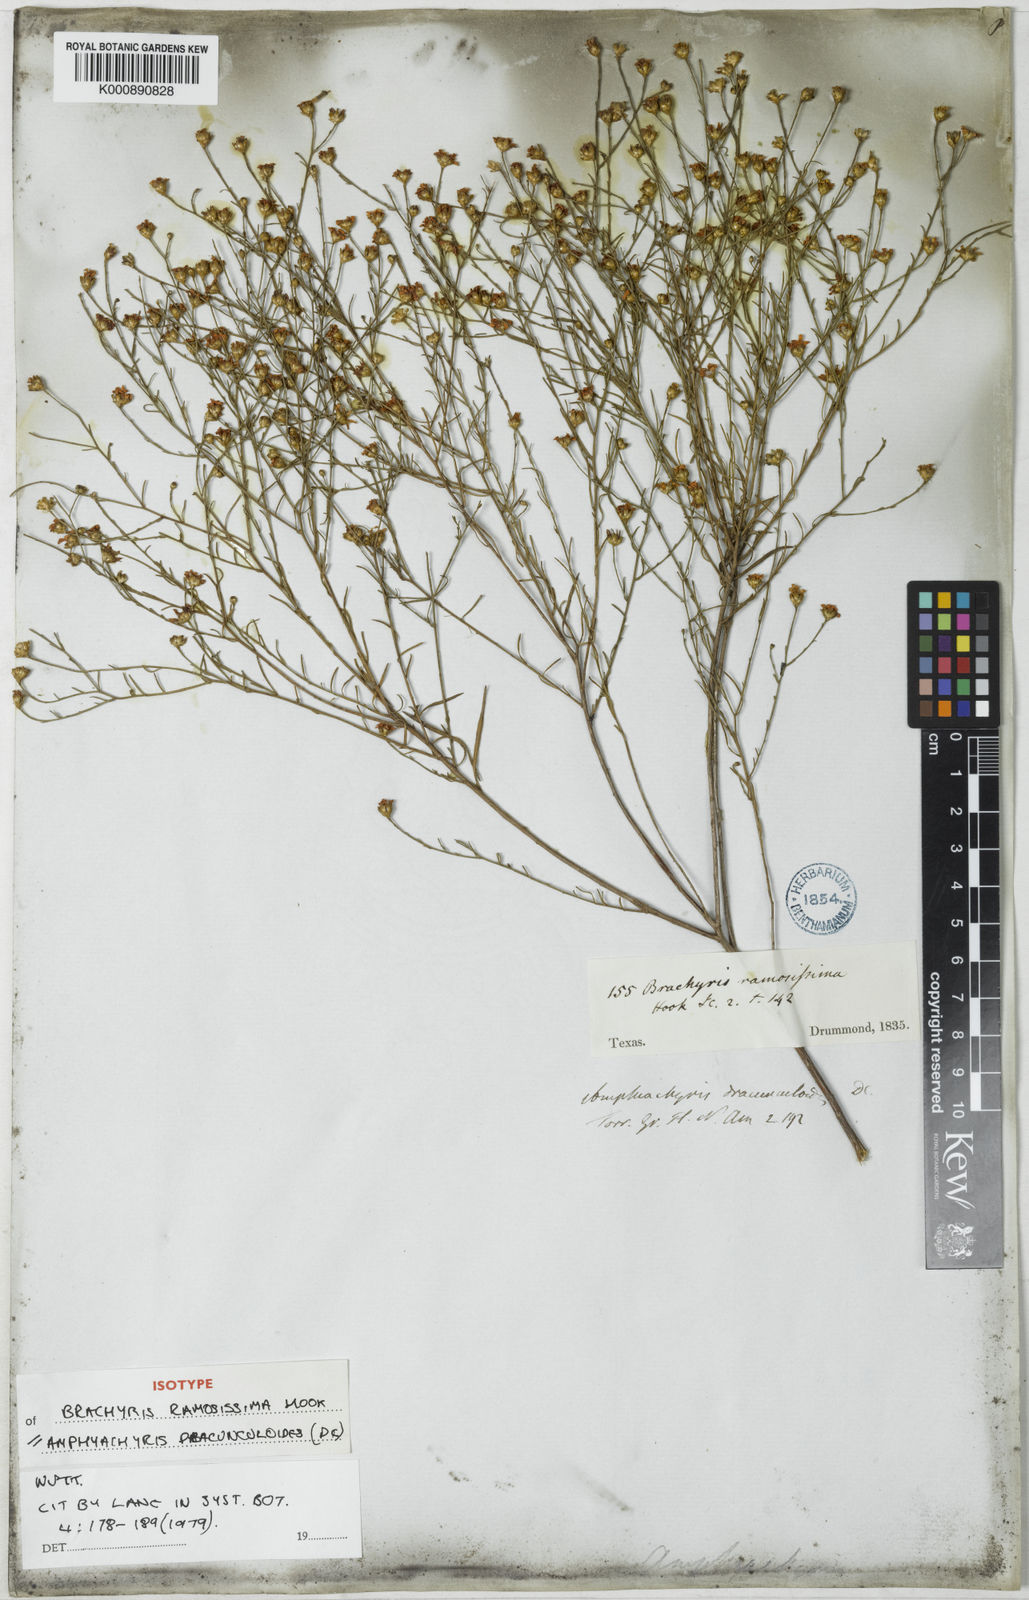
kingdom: Plantae
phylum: Tracheophyta
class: Magnoliopsida
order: Asterales
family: Asteraceae
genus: Amphiachyris
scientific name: Amphiachyris dracunculoides
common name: Broomweed
